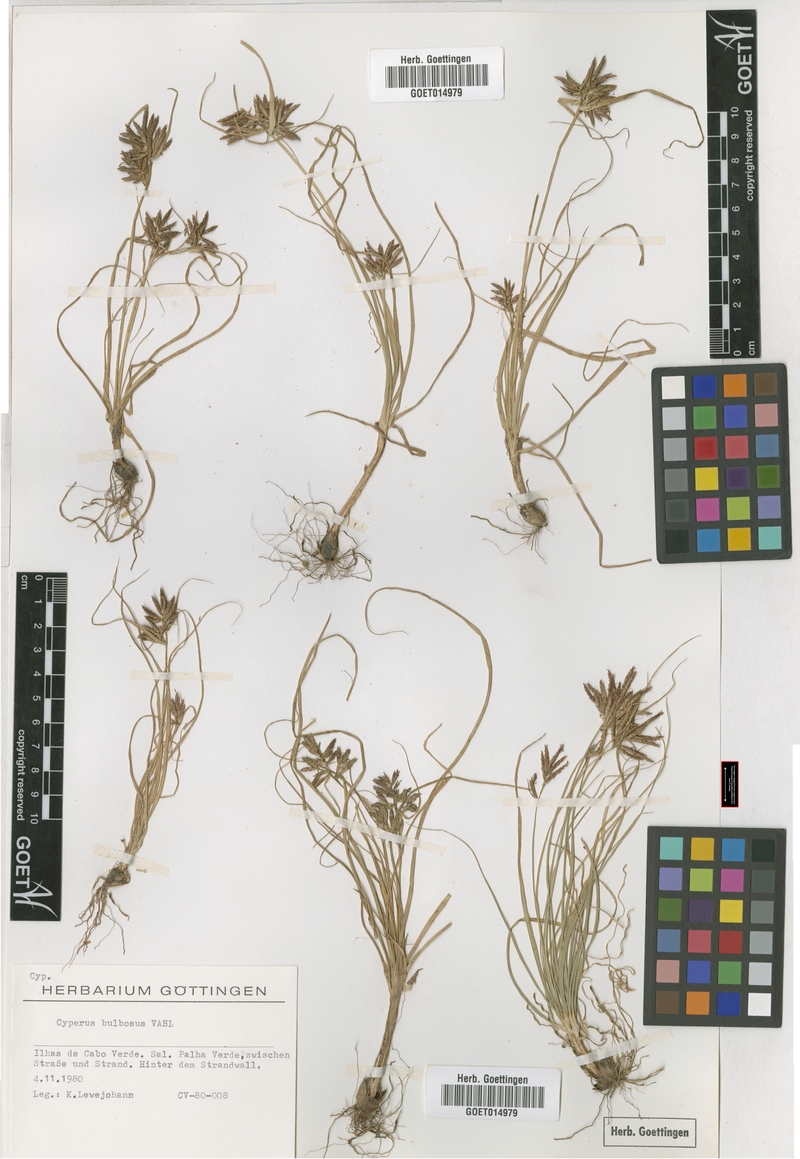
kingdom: Plantae
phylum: Tracheophyta
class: Liliopsida
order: Poales
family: Cyperaceae
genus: Cyperus
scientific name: Cyperus bulbosus
